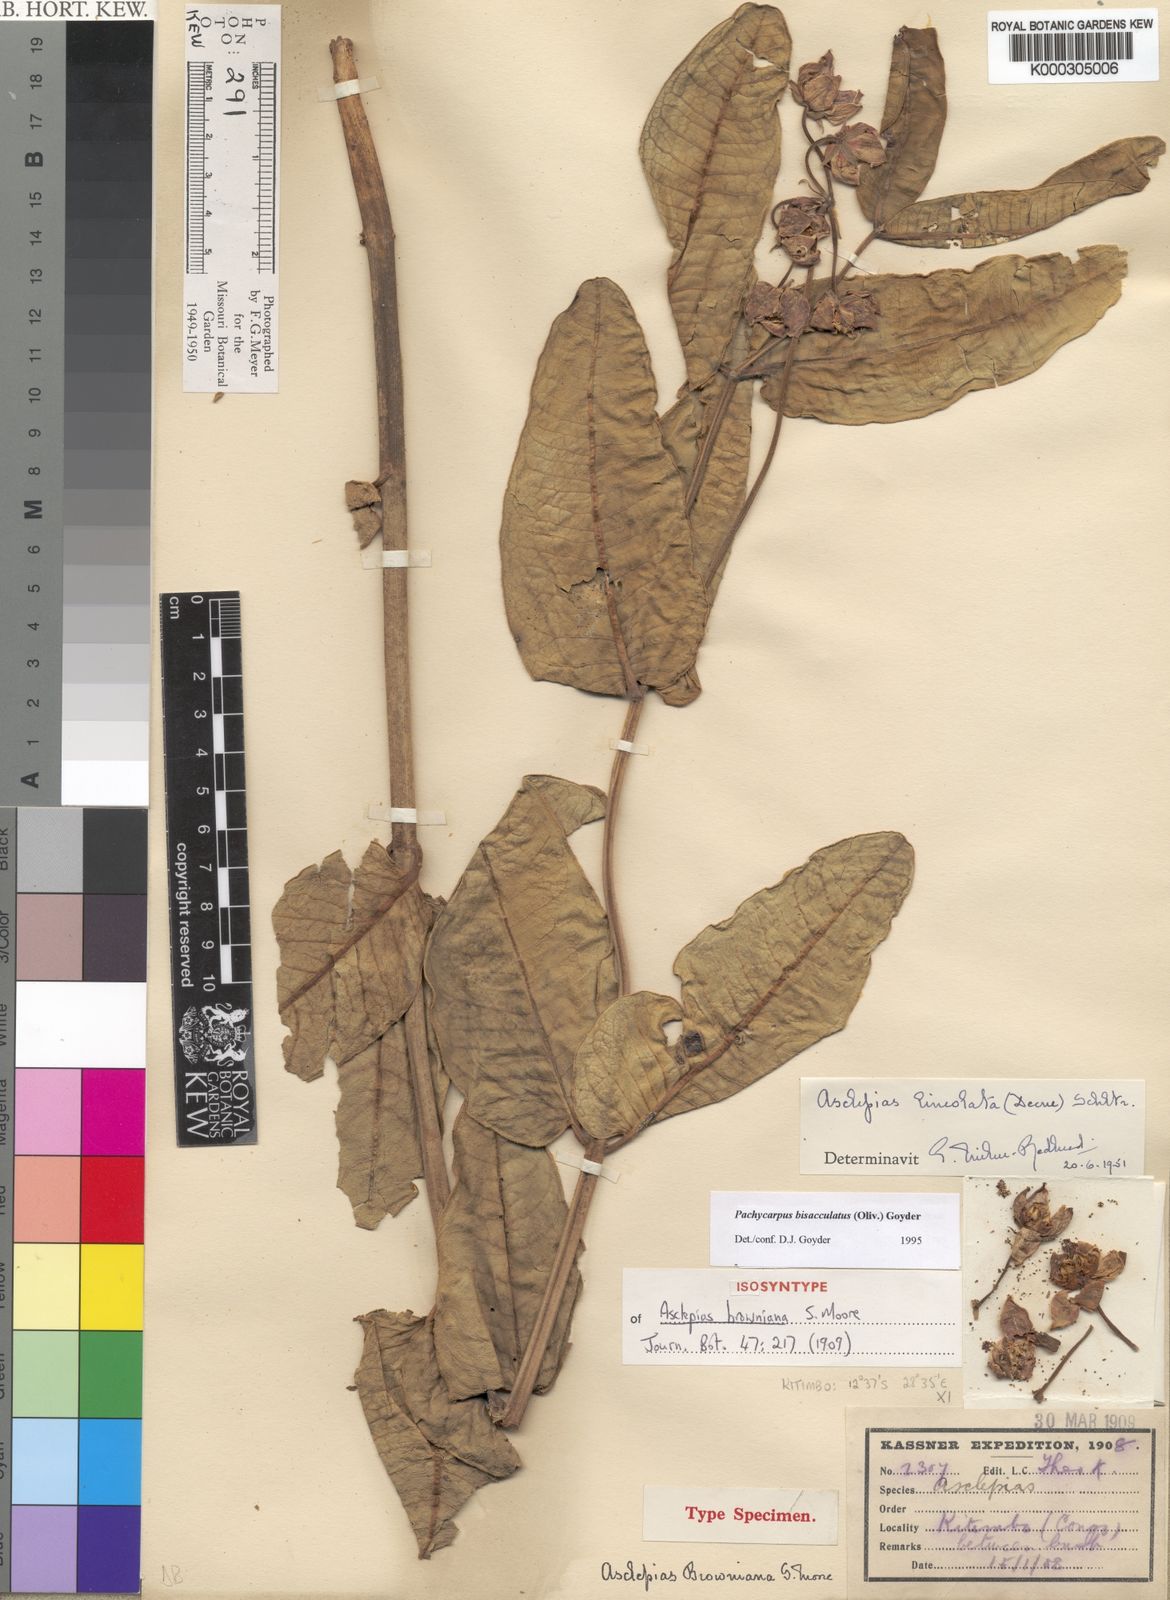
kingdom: Plantae
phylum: Tracheophyta
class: Magnoliopsida
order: Gentianales
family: Apocynaceae
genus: Pachycarpus
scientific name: Pachycarpus bisacculatus
